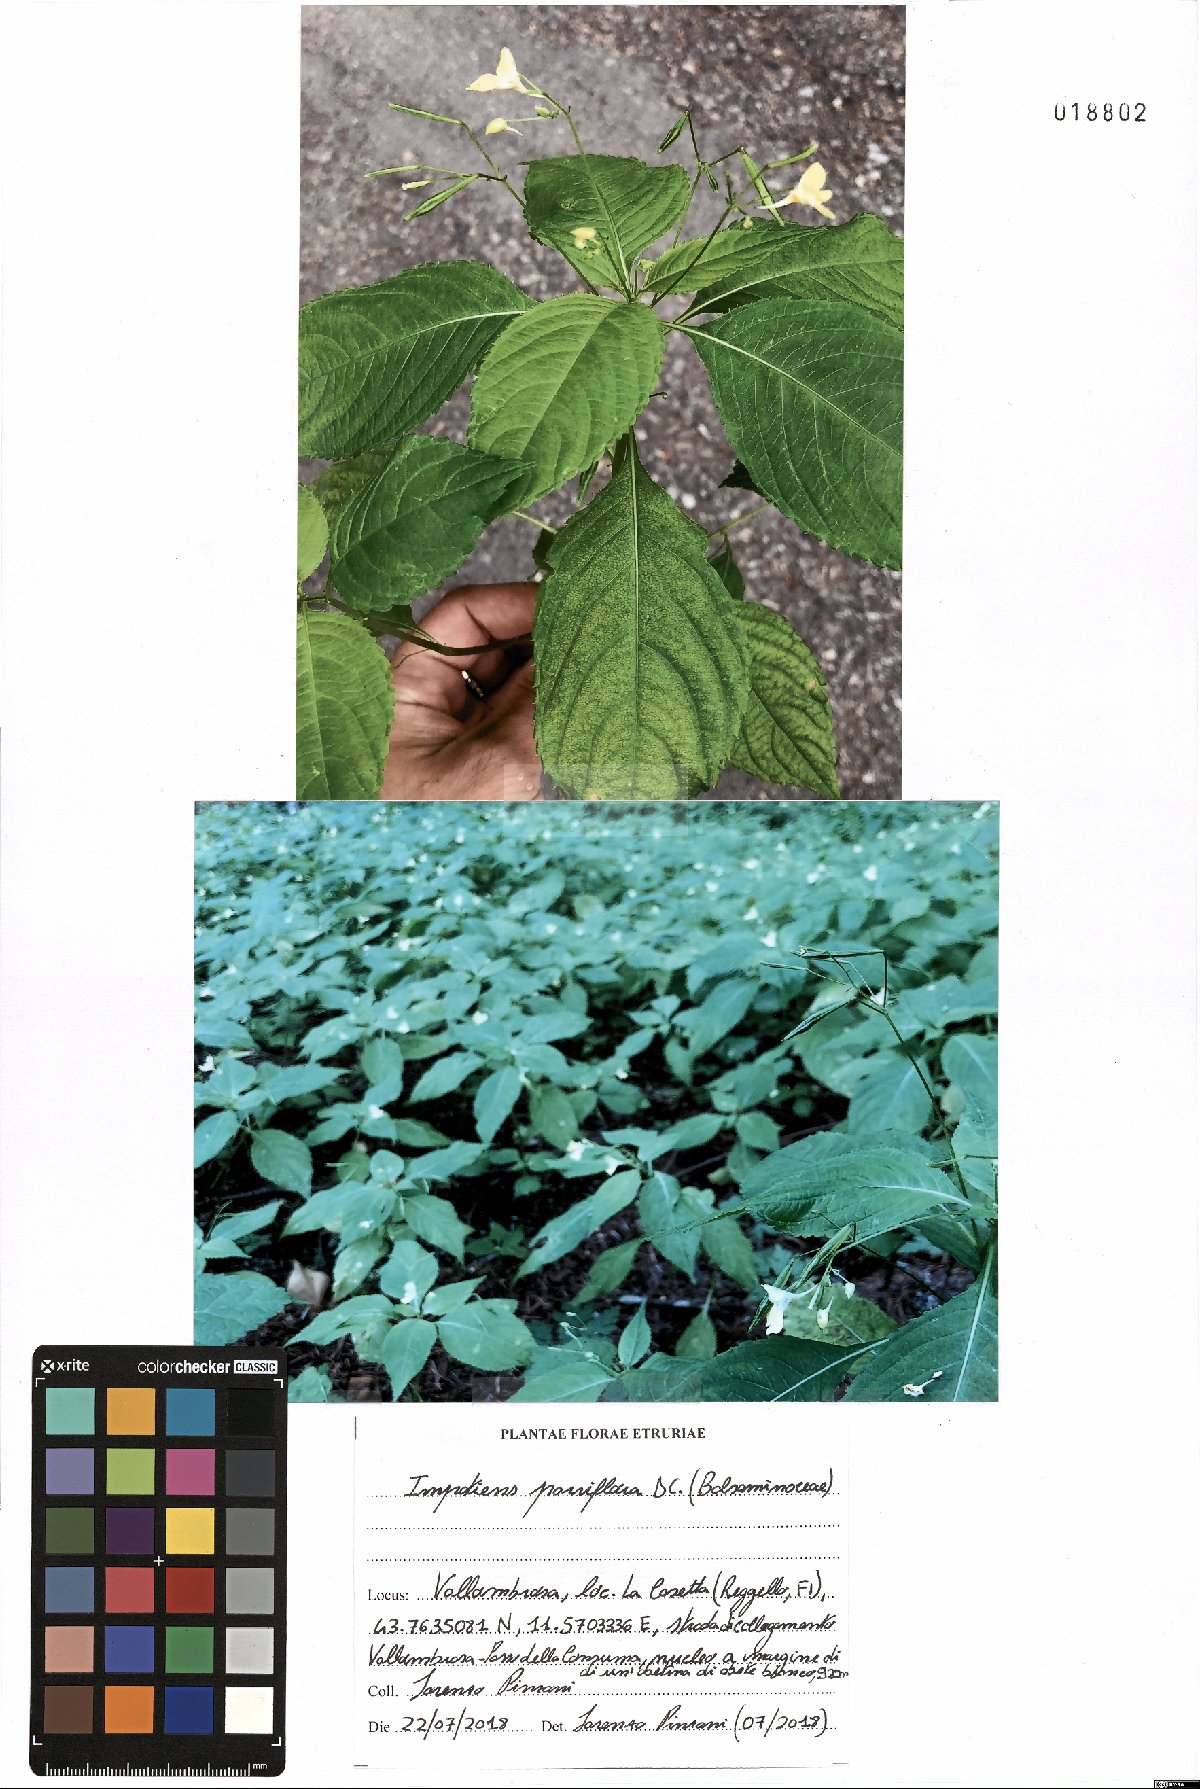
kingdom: Plantae
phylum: Tracheophyta
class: Magnoliopsida
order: Ericales
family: Balsaminaceae
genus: Impatiens
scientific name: Impatiens parviflora
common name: Small balsam
